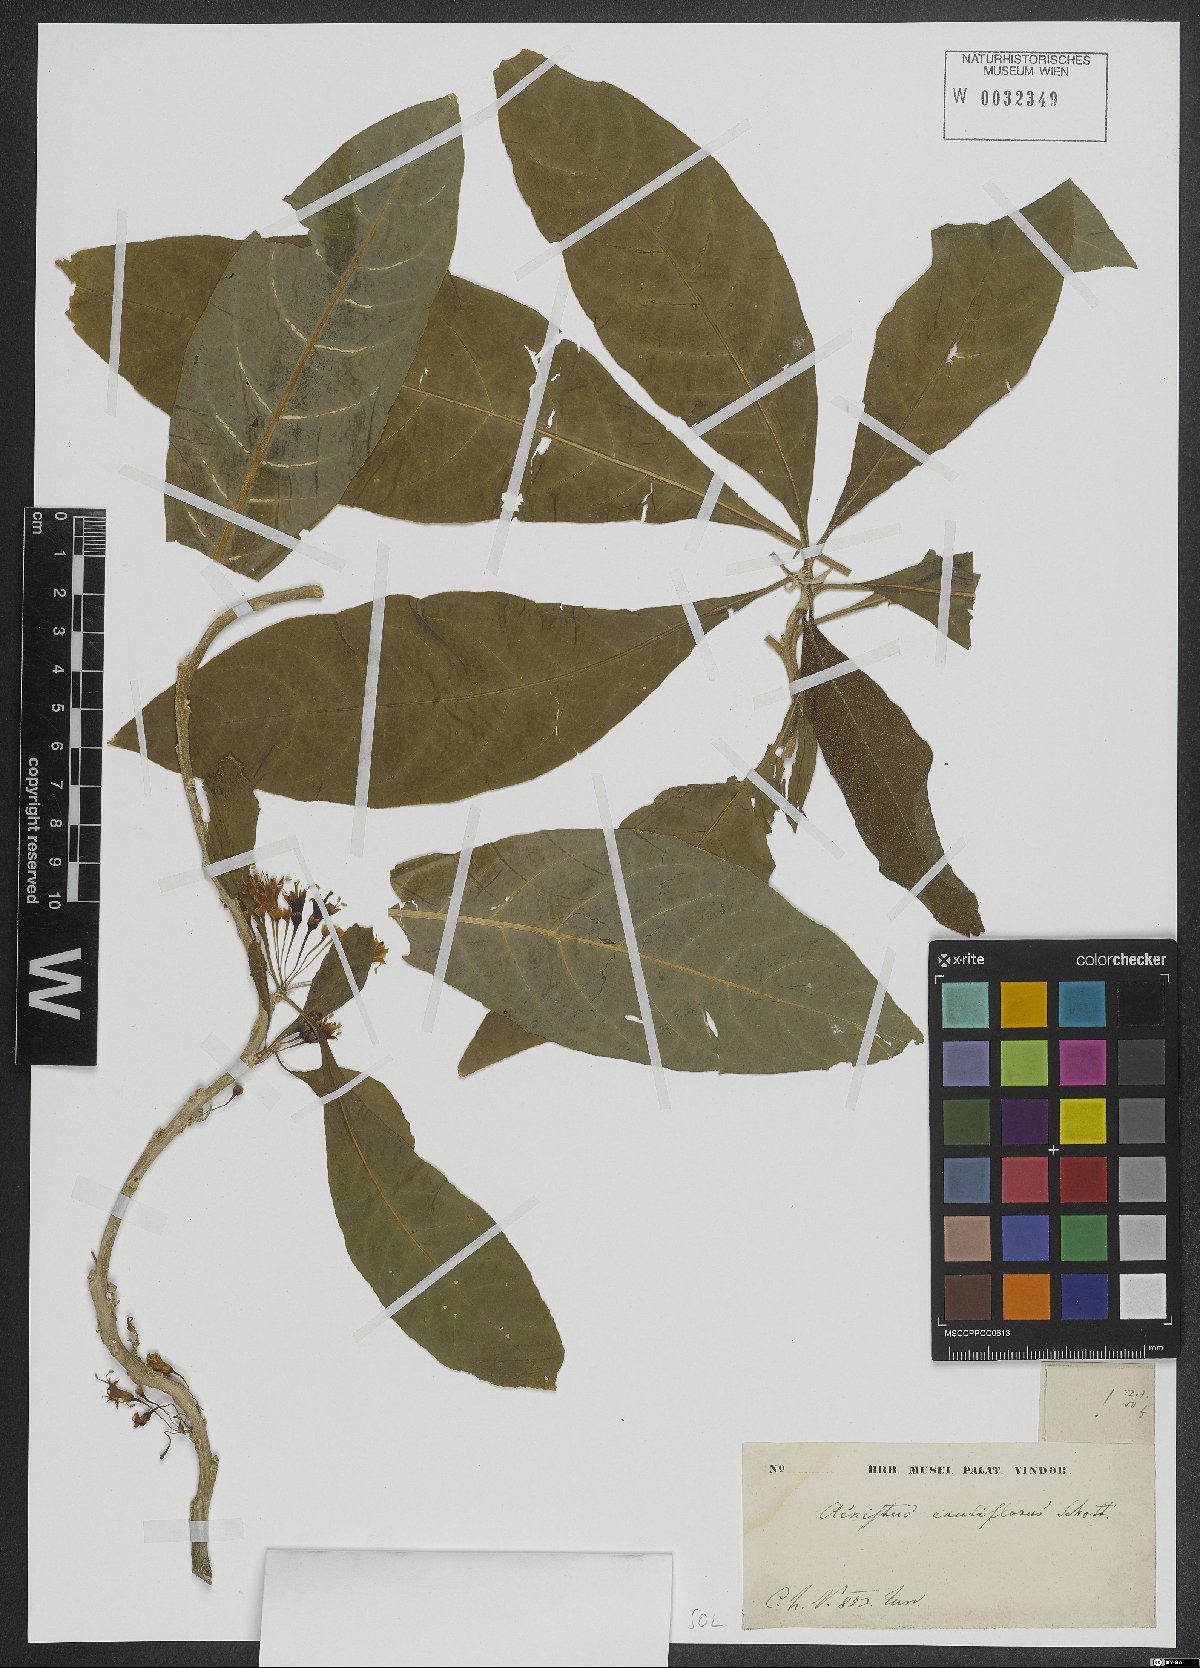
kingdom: Plantae
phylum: Tracheophyta
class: Magnoliopsida
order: Solanales
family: Solanaceae
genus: Iochroma
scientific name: Iochroma arborescens
